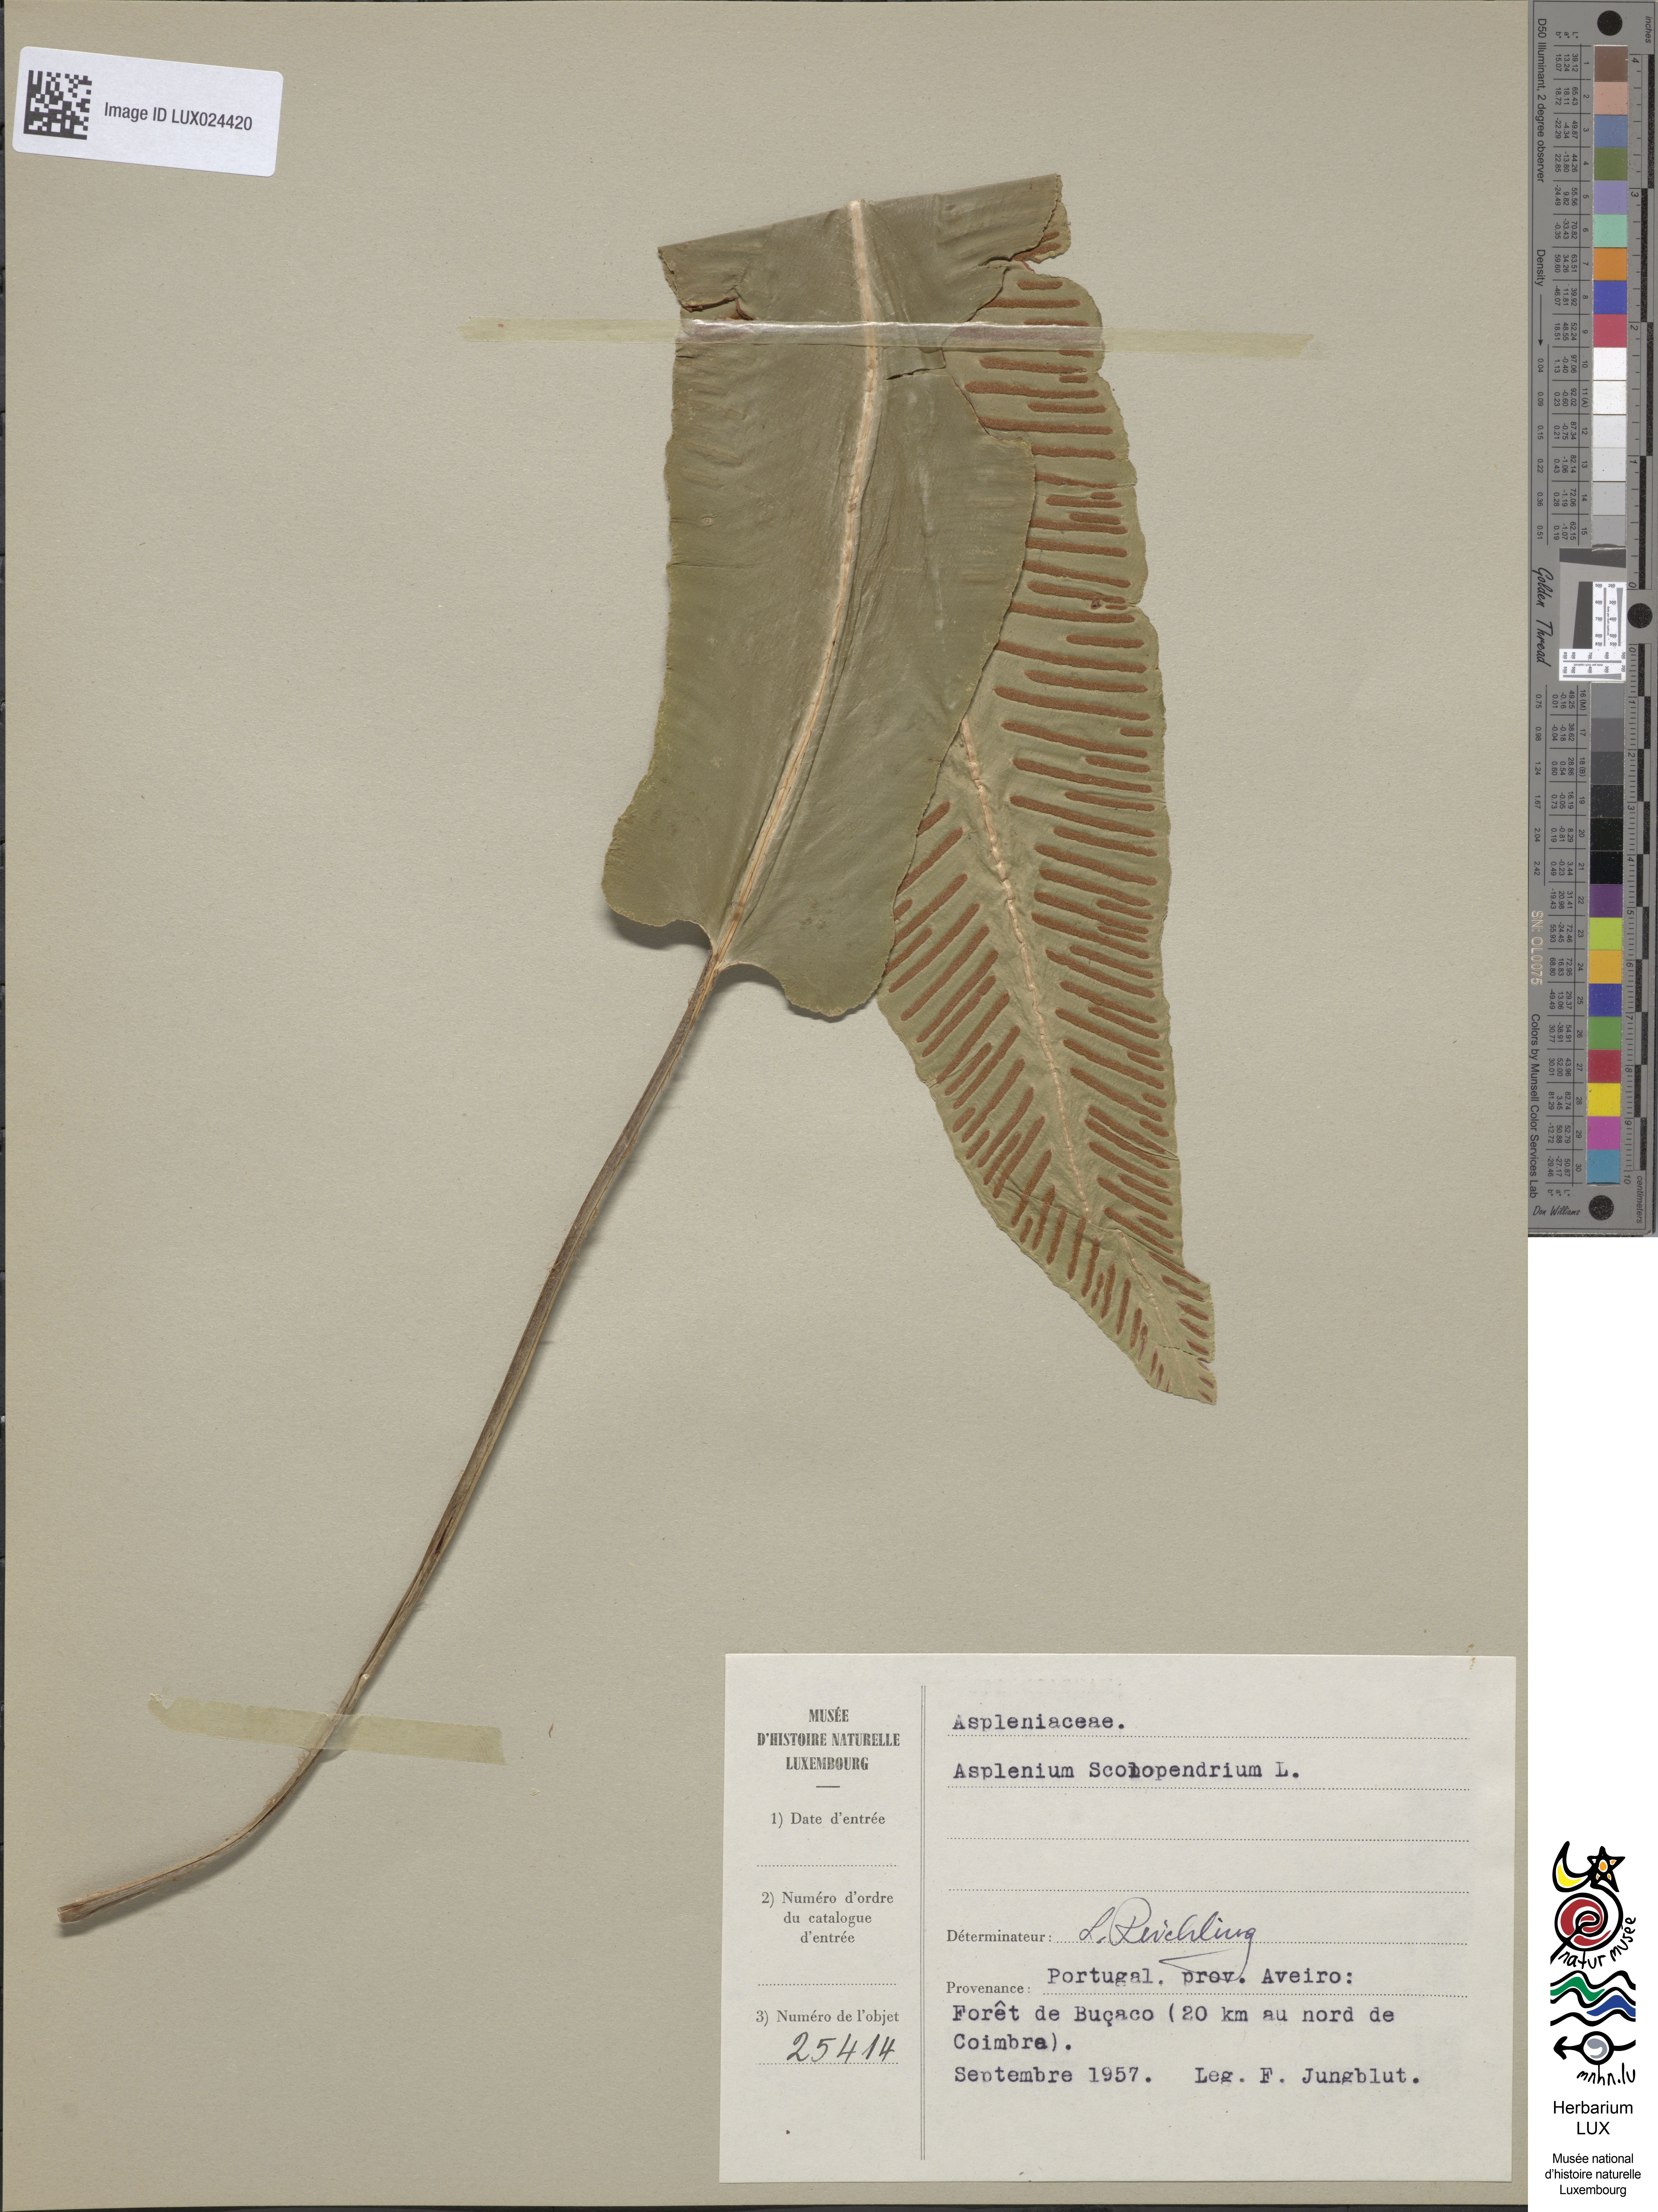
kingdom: Plantae
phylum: Tracheophyta
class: Polypodiopsida
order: Polypodiales
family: Aspleniaceae
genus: Asplenium
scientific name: Asplenium scolopendrium
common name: Hart's-tongue fern
